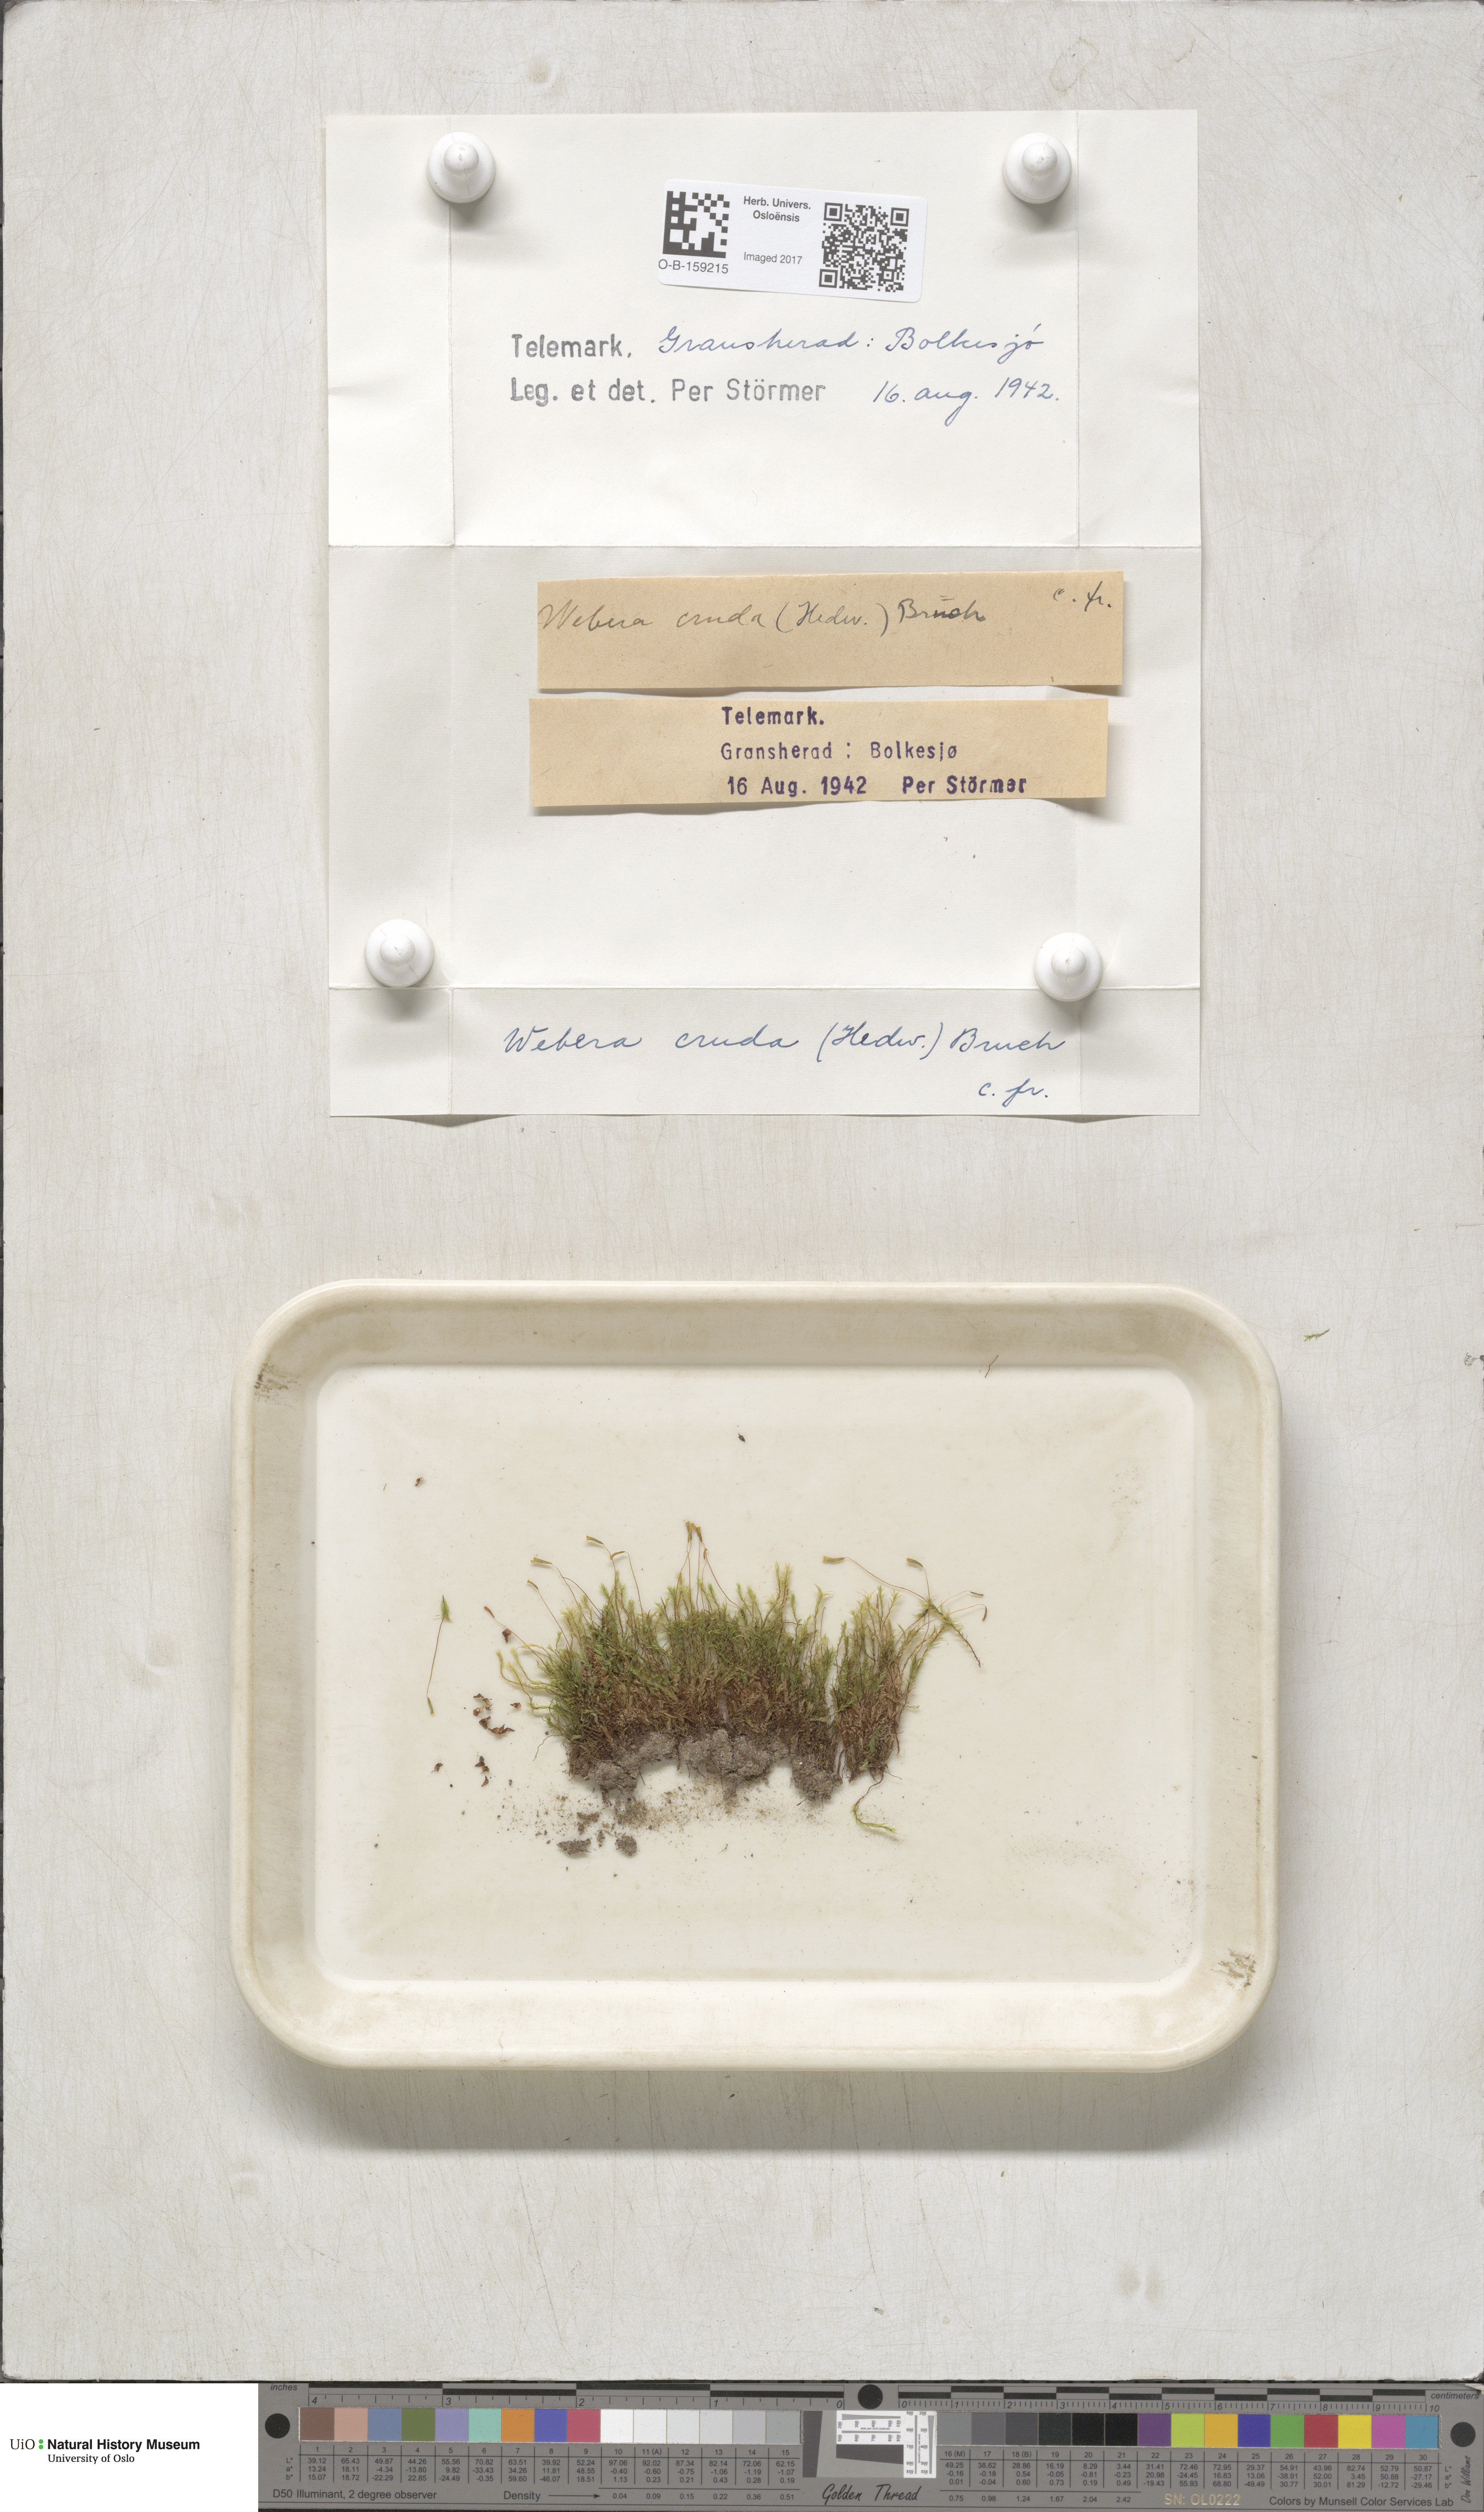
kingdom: Plantae
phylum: Bryophyta
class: Bryopsida
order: Bryales
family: Mniaceae
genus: Pohlia
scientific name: Pohlia cruda
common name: Opal nodding moss
